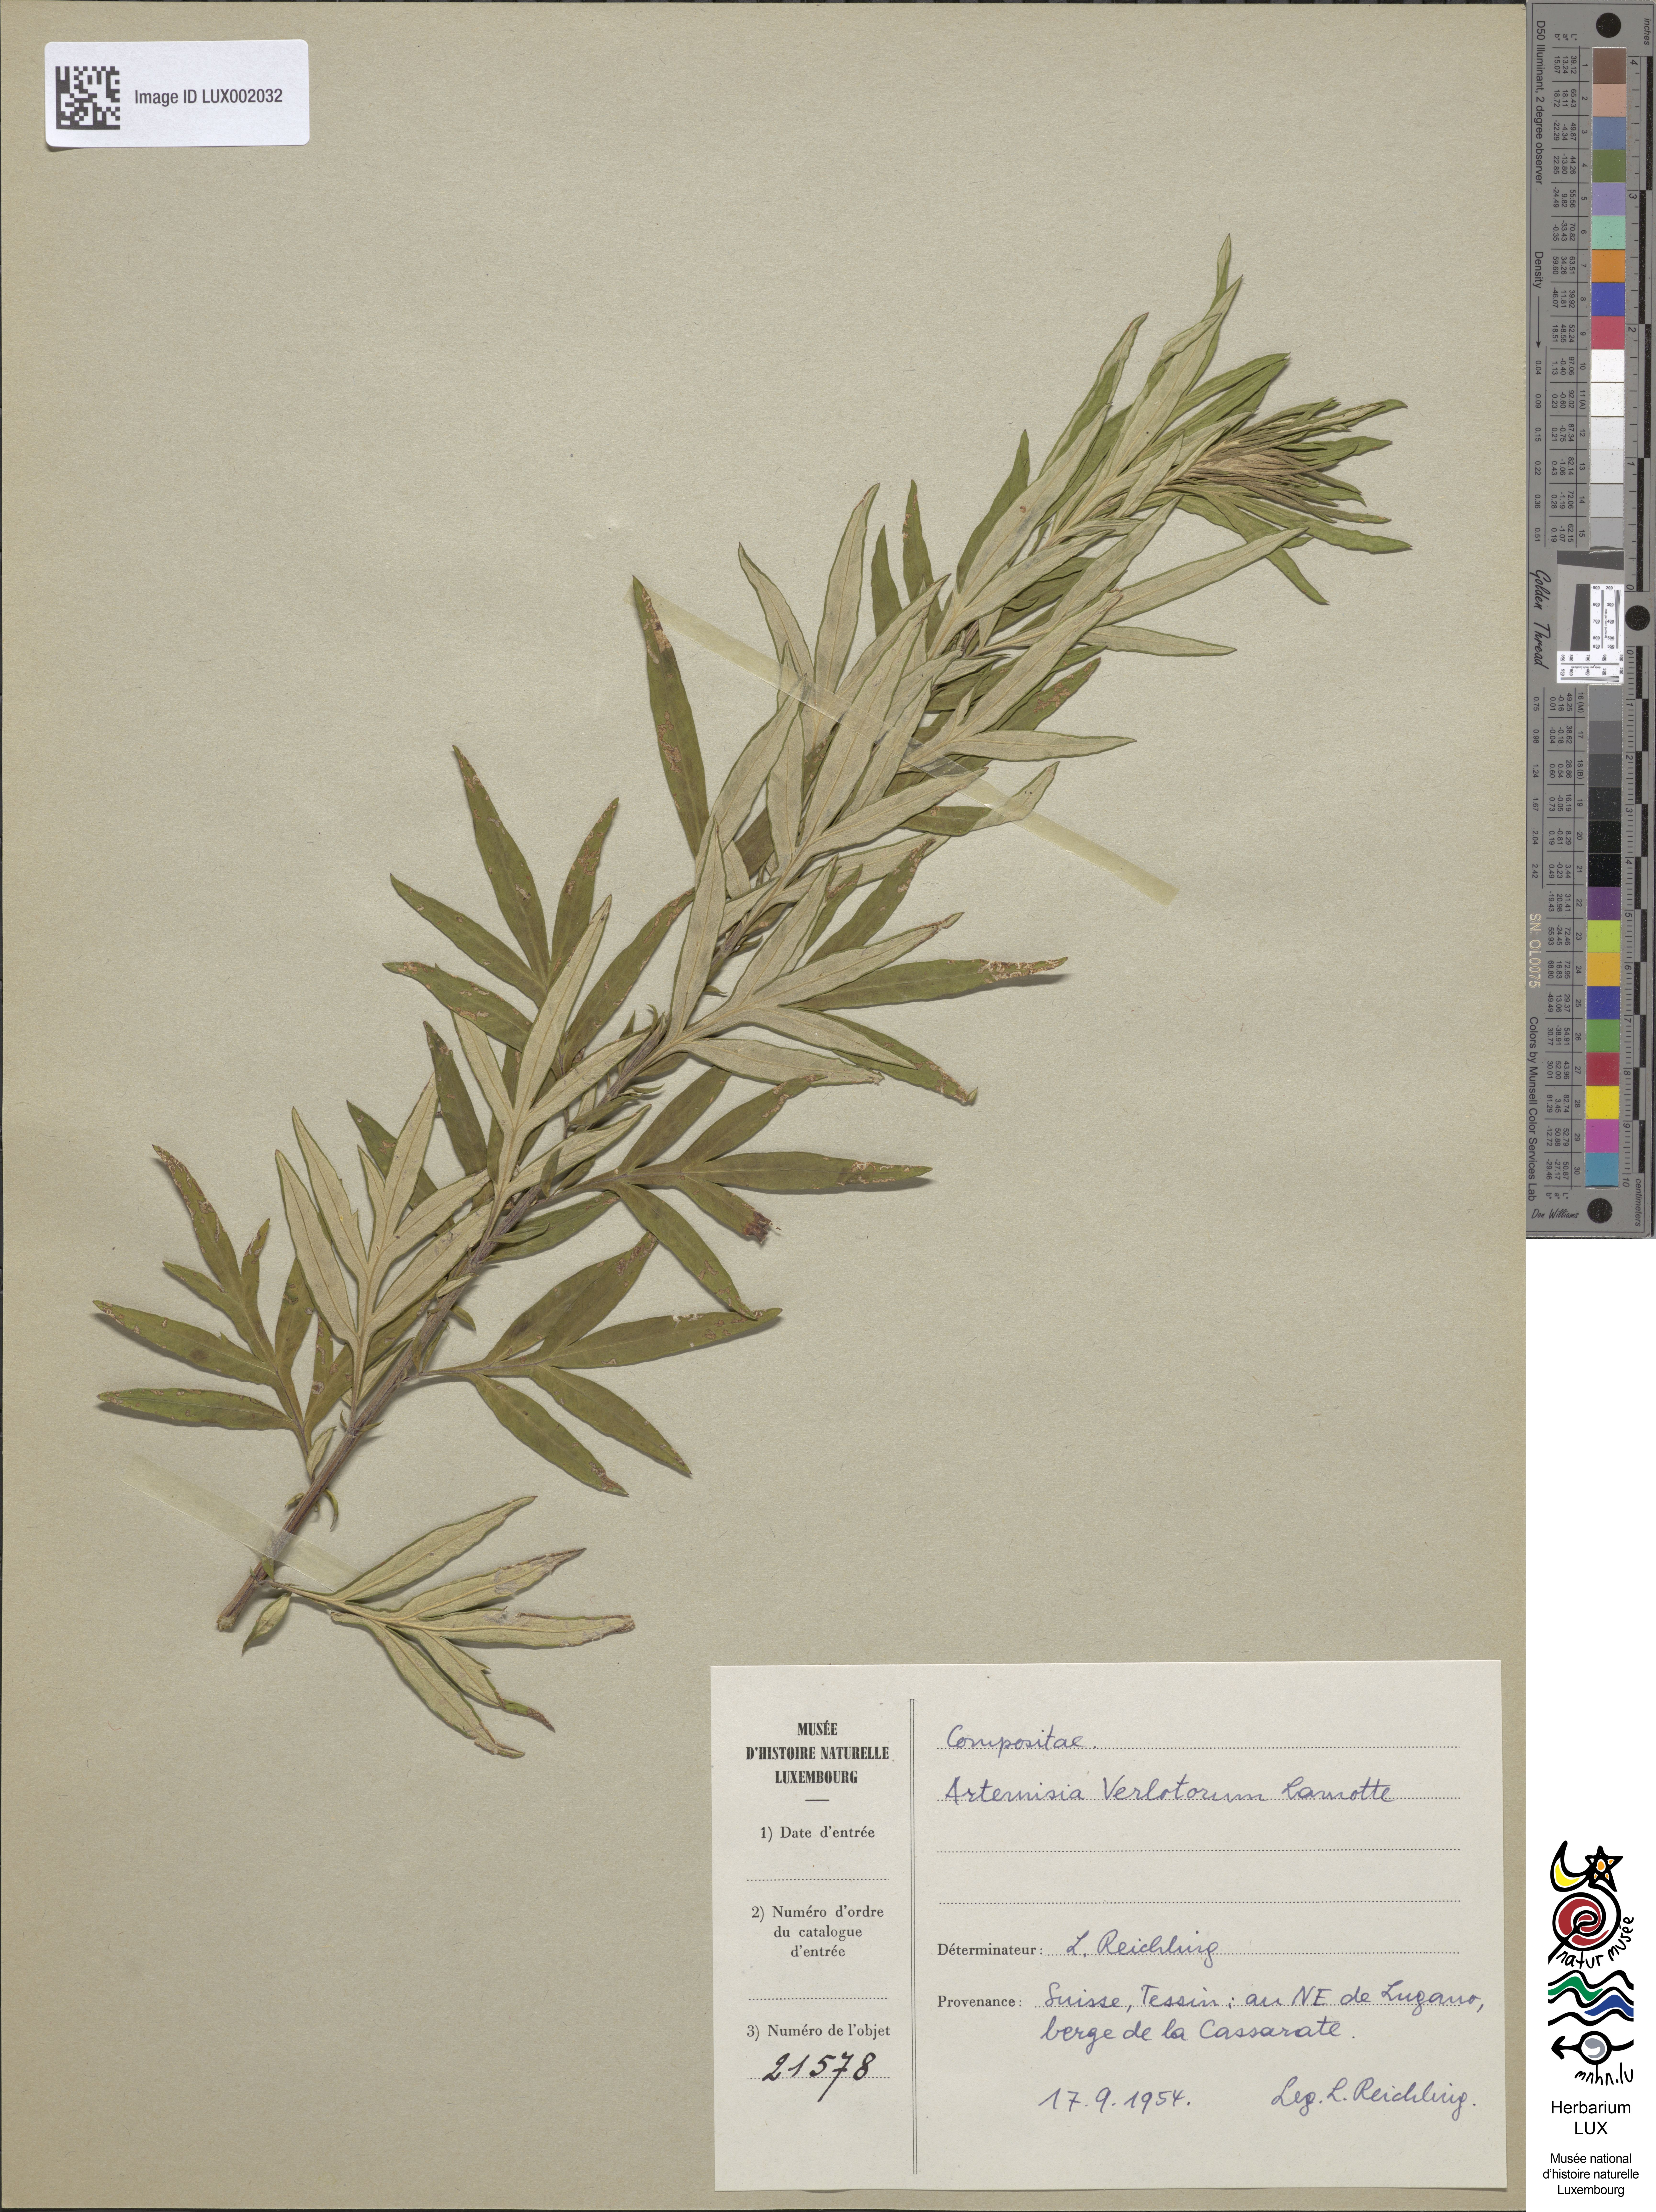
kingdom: Plantae
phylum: Tracheophyta
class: Magnoliopsida
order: Asterales
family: Asteraceae
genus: Artemisia
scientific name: Artemisia verlotiorum
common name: Chinese mugwort
